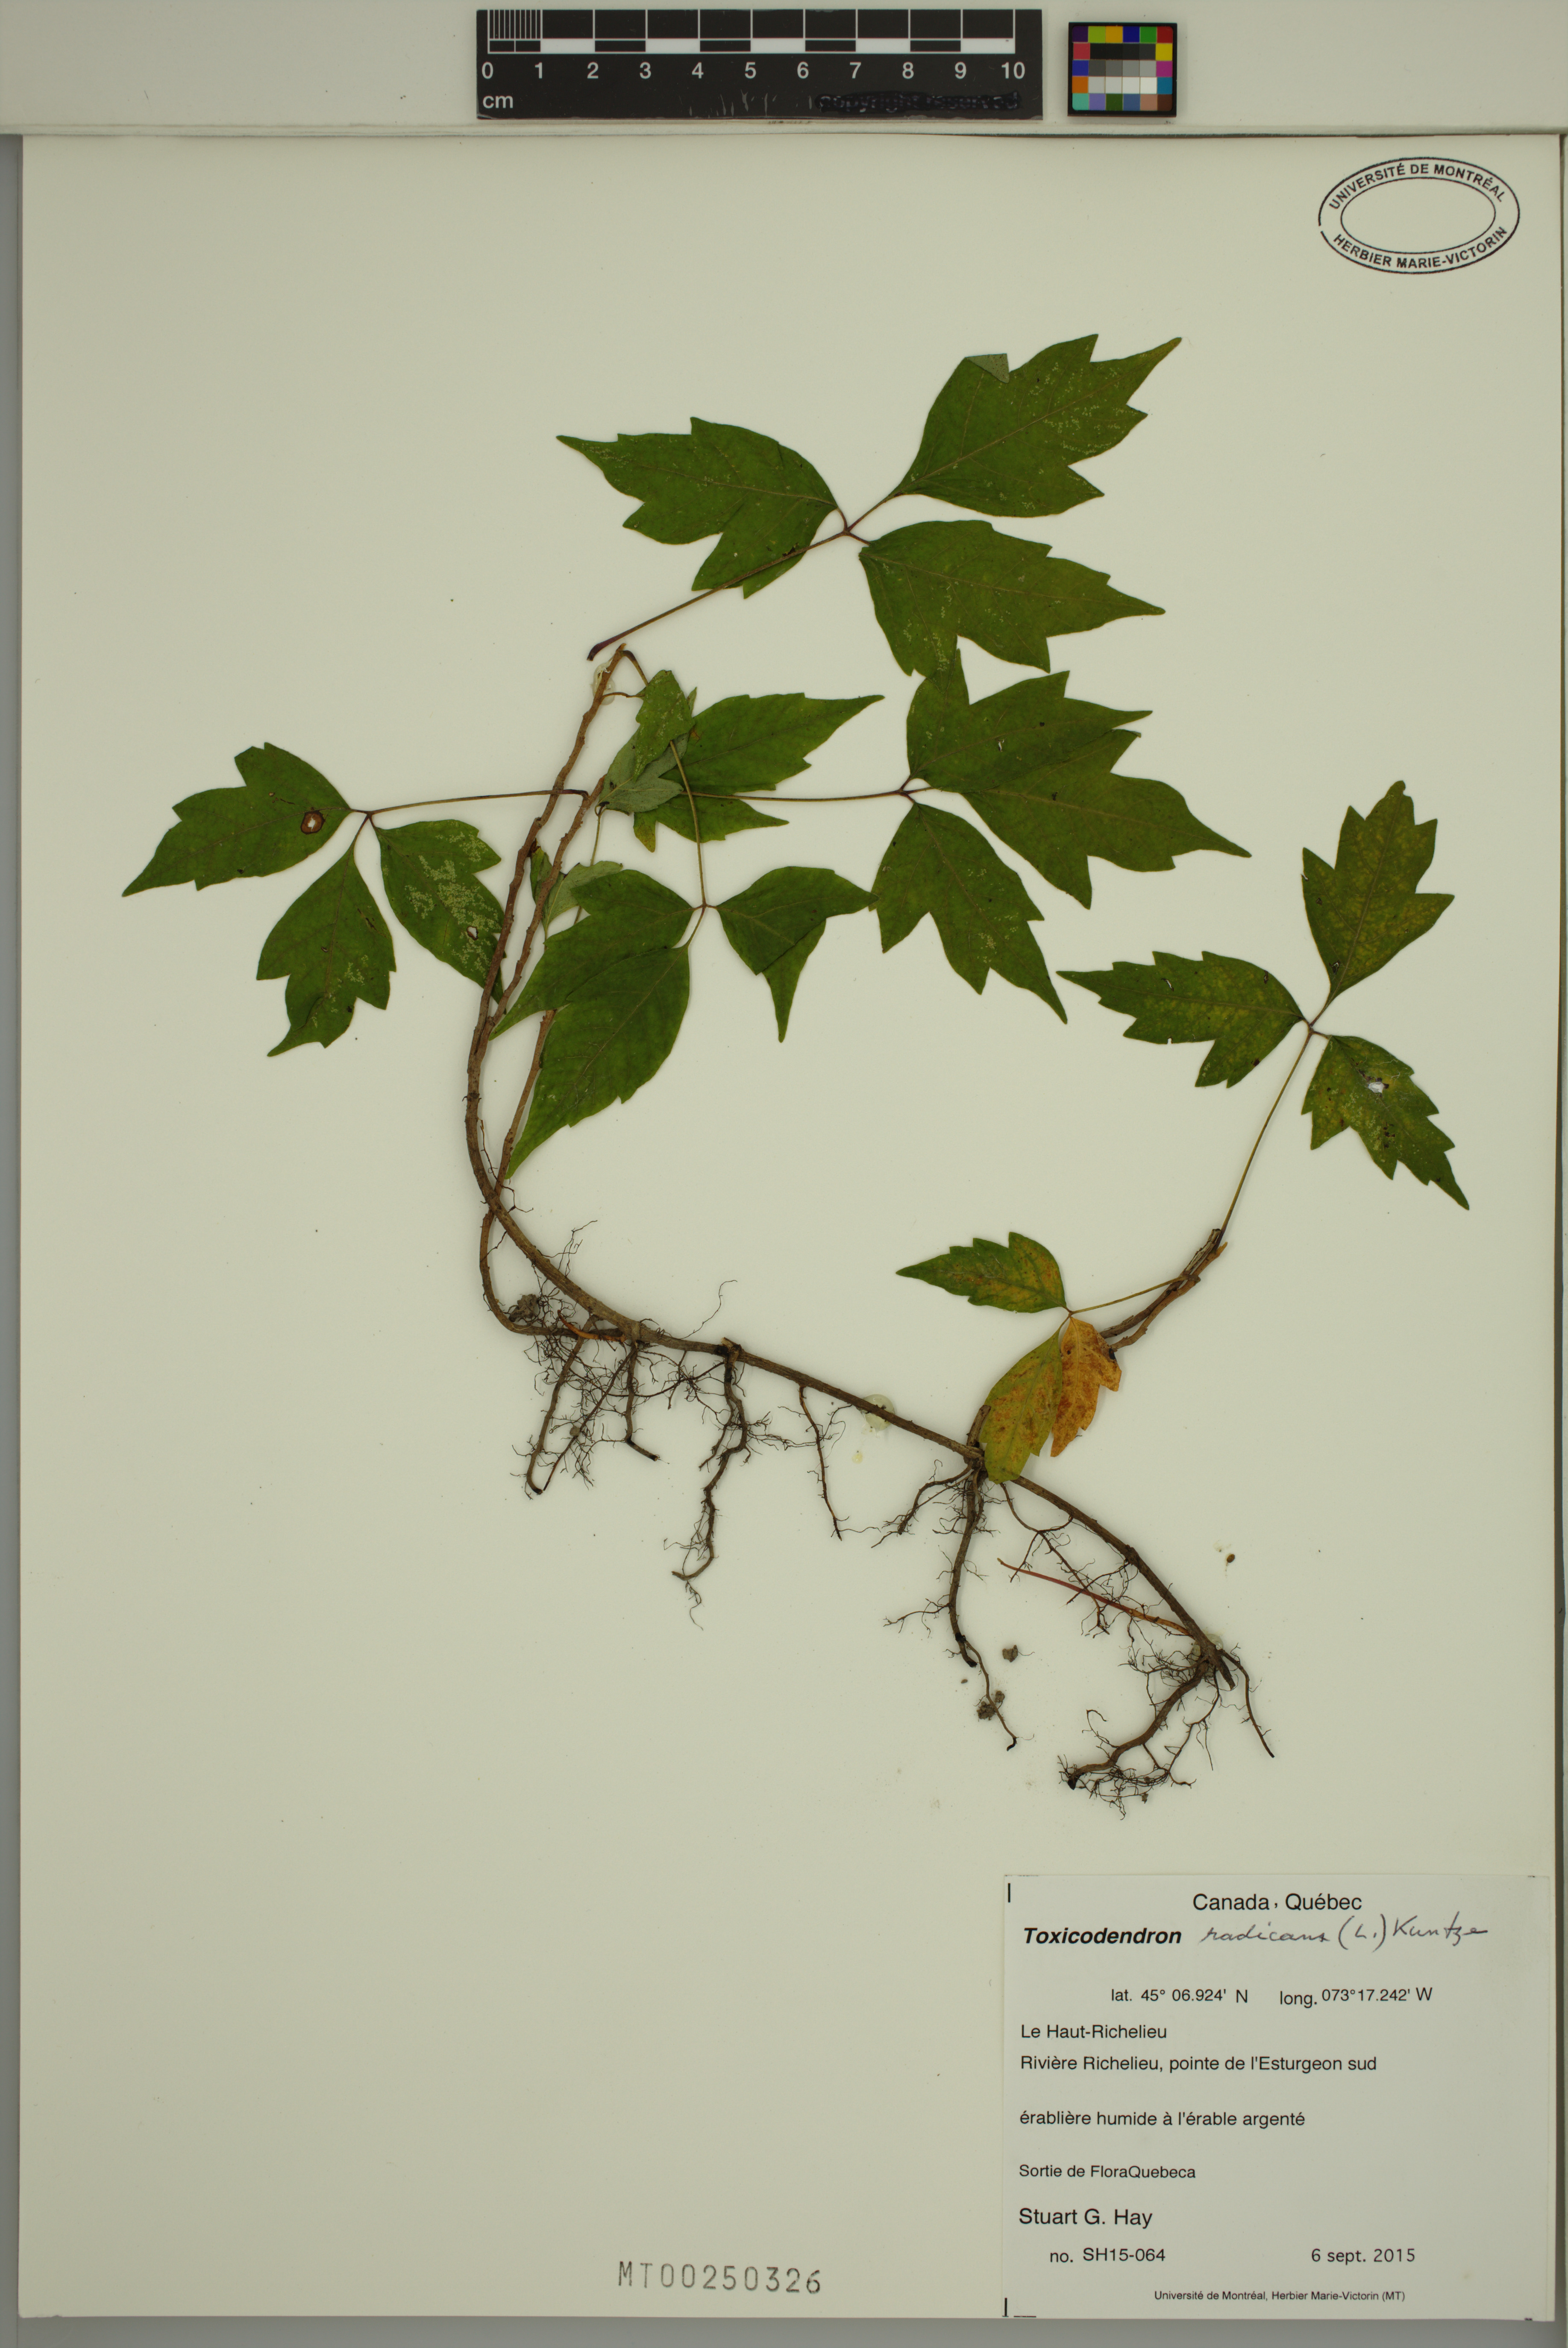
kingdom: Plantae
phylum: Tracheophyta
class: Magnoliopsida
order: Sapindales
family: Anacardiaceae
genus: Toxicodendron
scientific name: Toxicodendron radicans
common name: Poison ivy
